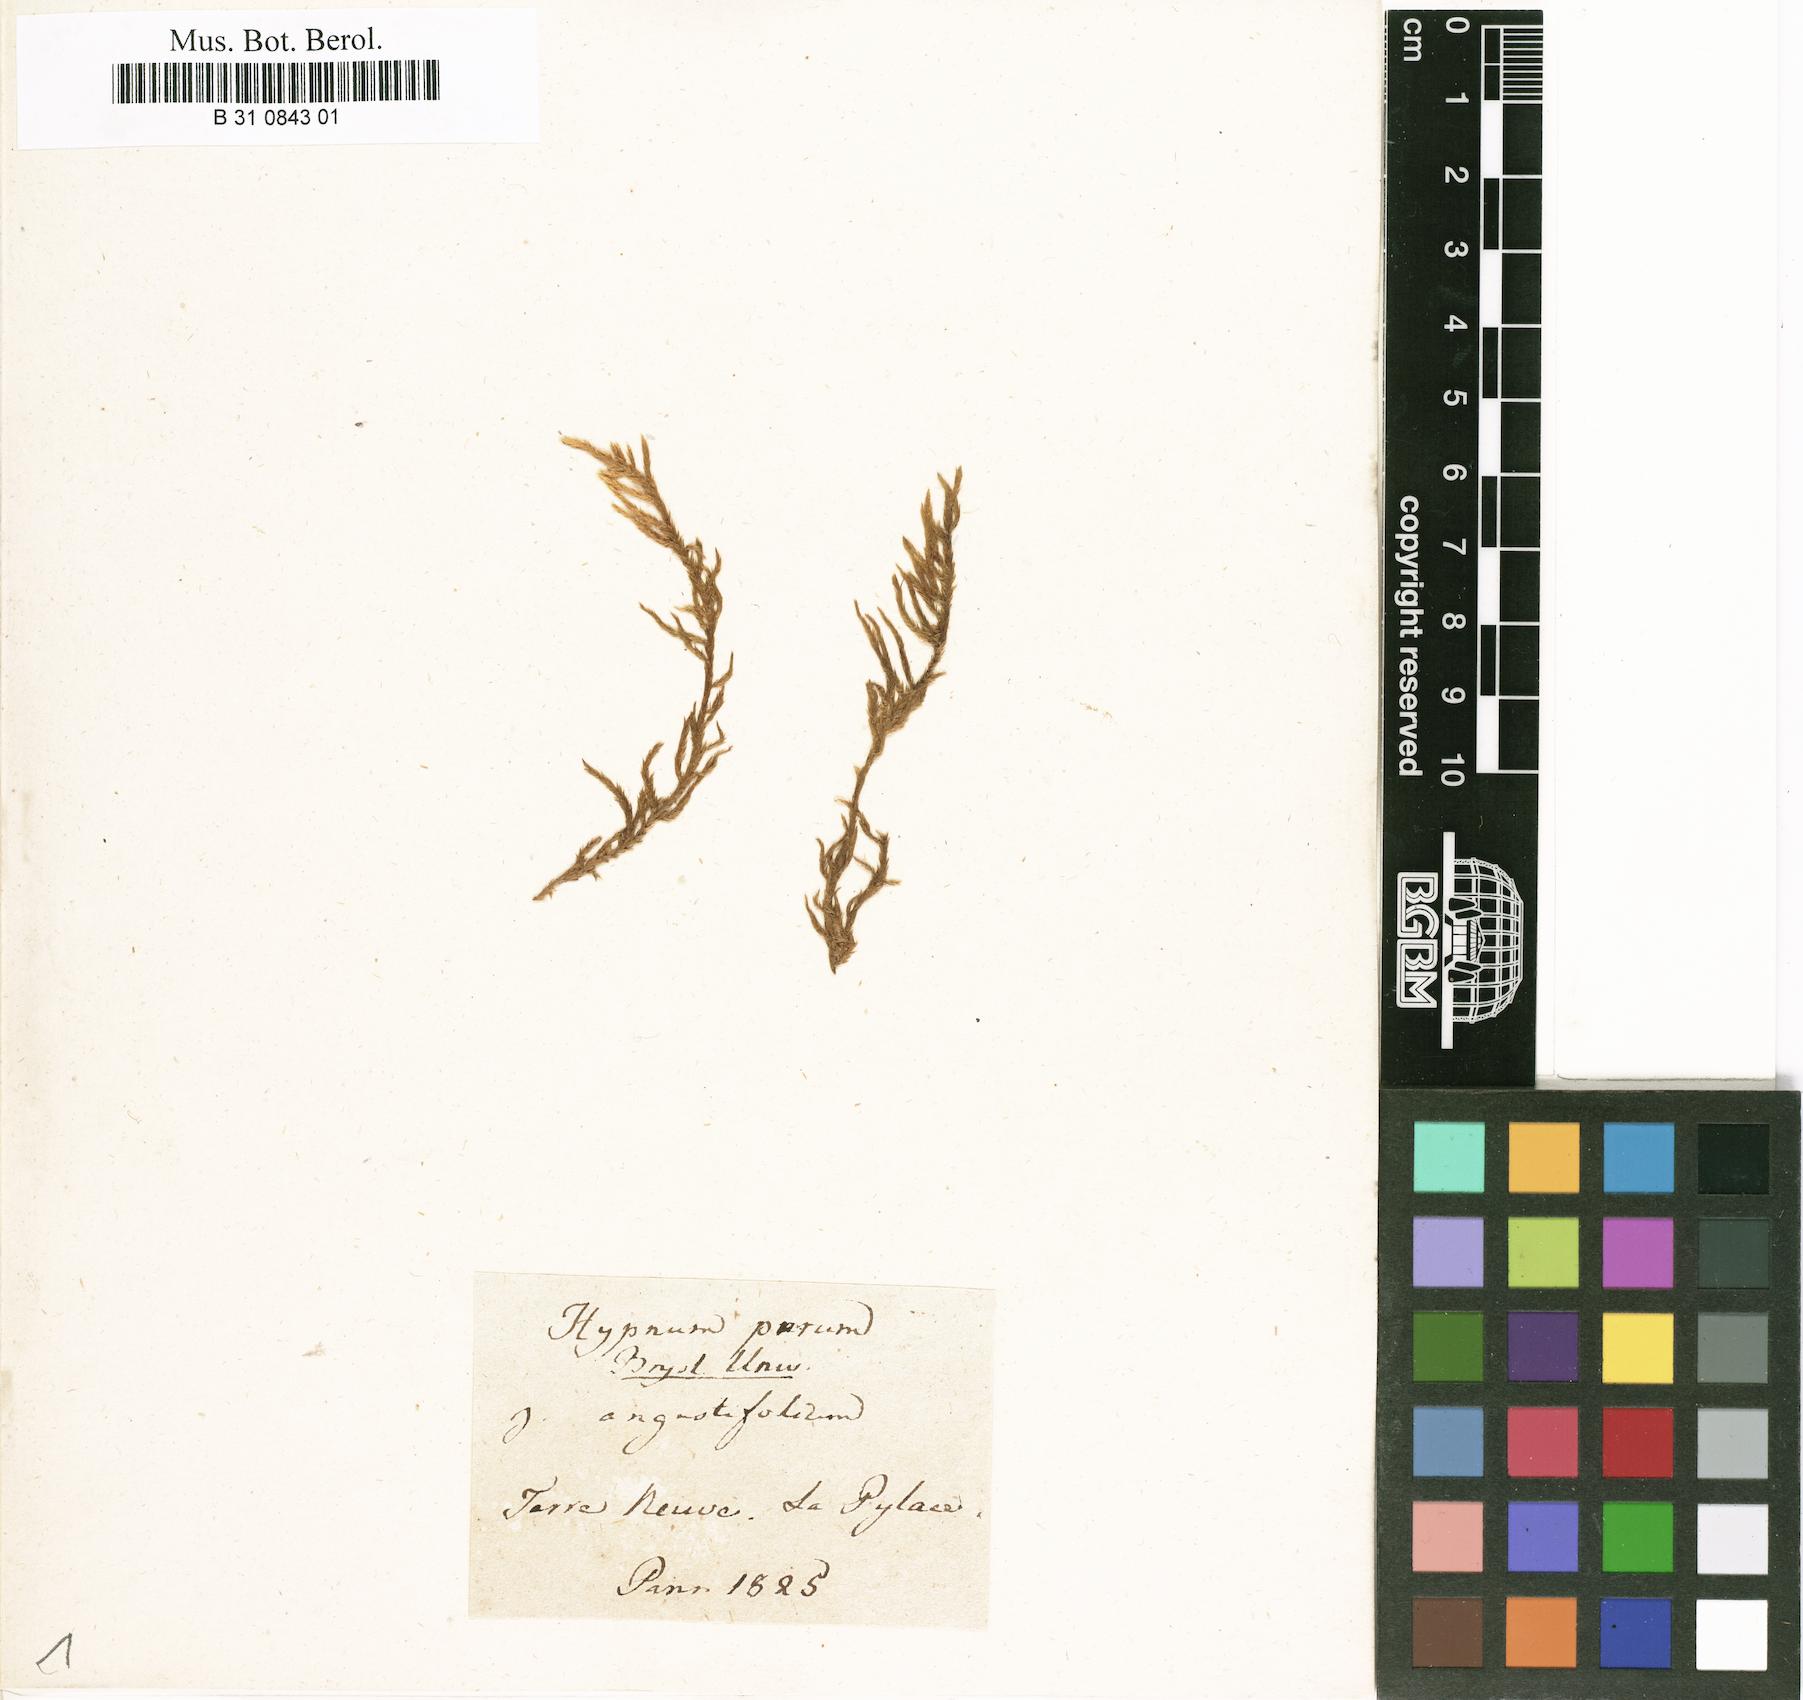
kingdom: Plantae
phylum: Bryophyta
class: Bryopsida
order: Hypnales
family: Brachytheciaceae
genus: Pseudoscleropodium
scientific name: Pseudoscleropodium purum
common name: Neat feather-moss
